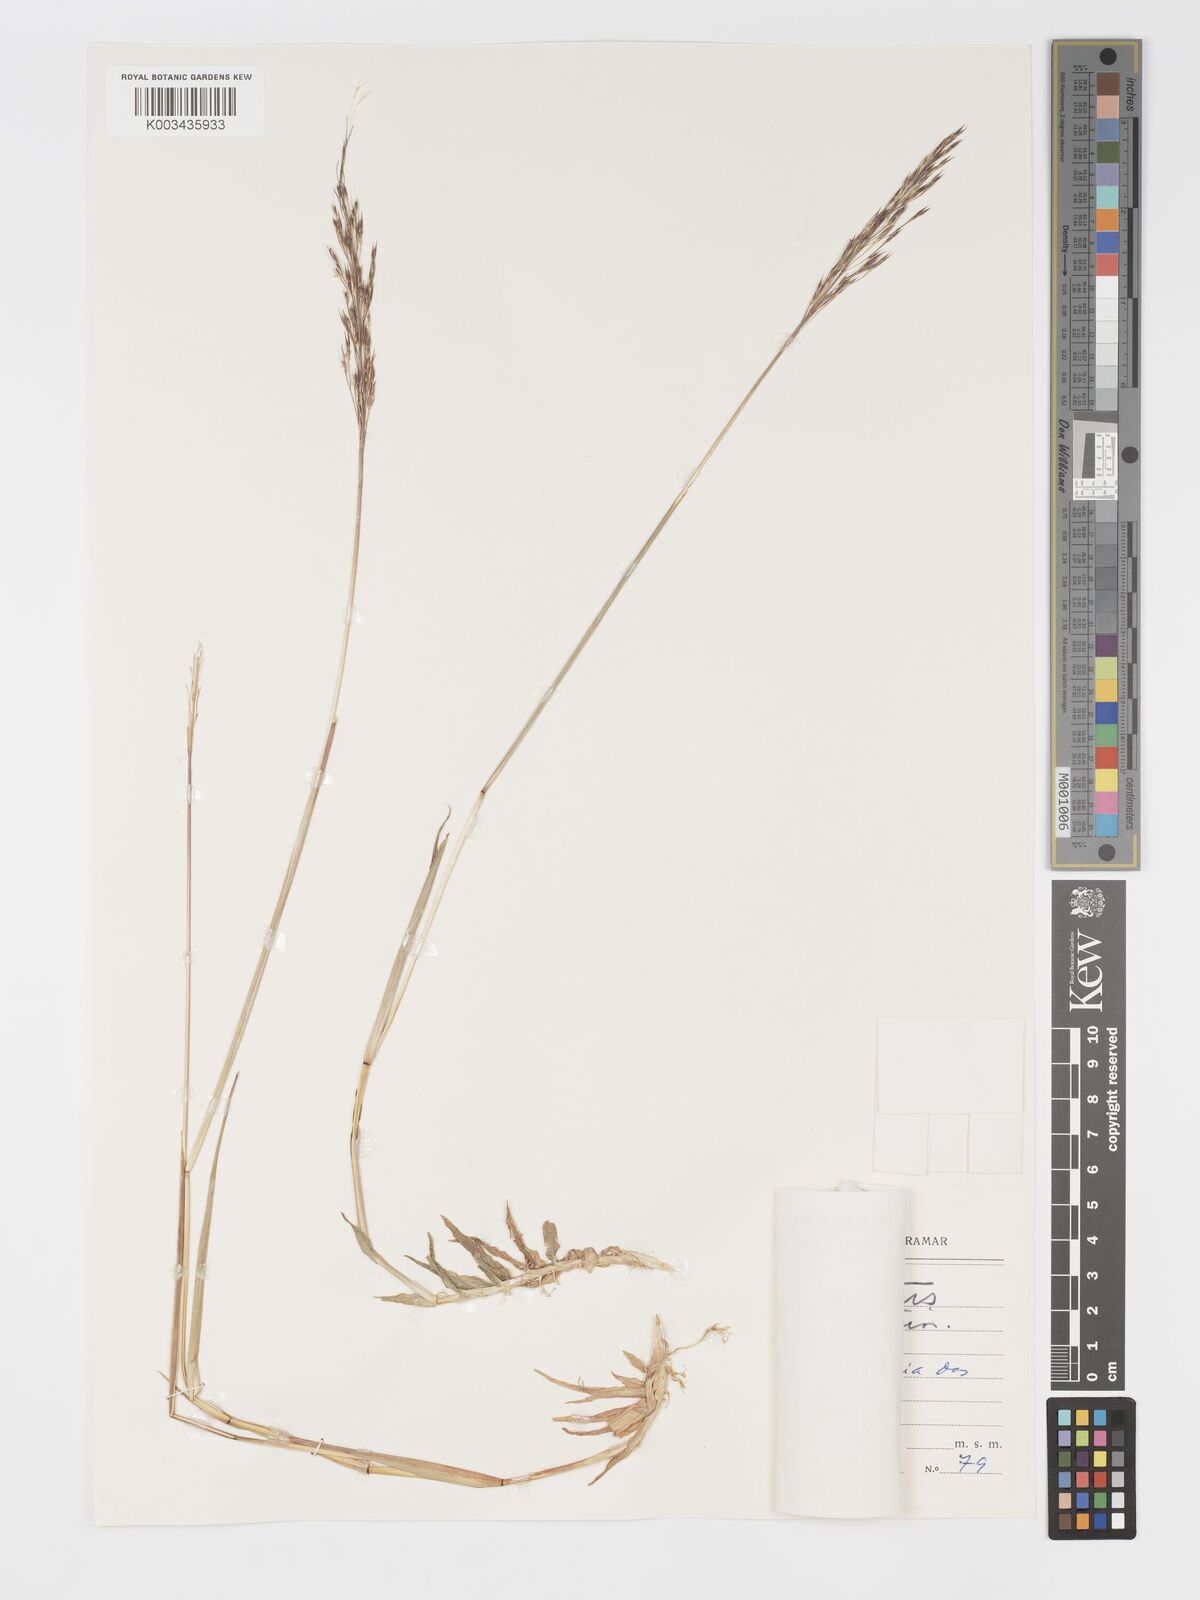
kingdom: Plantae
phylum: Tracheophyta
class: Liliopsida
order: Poales
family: Poaceae
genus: Chrysopogon
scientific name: Chrysopogon aciculatus
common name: Pilipiliula
